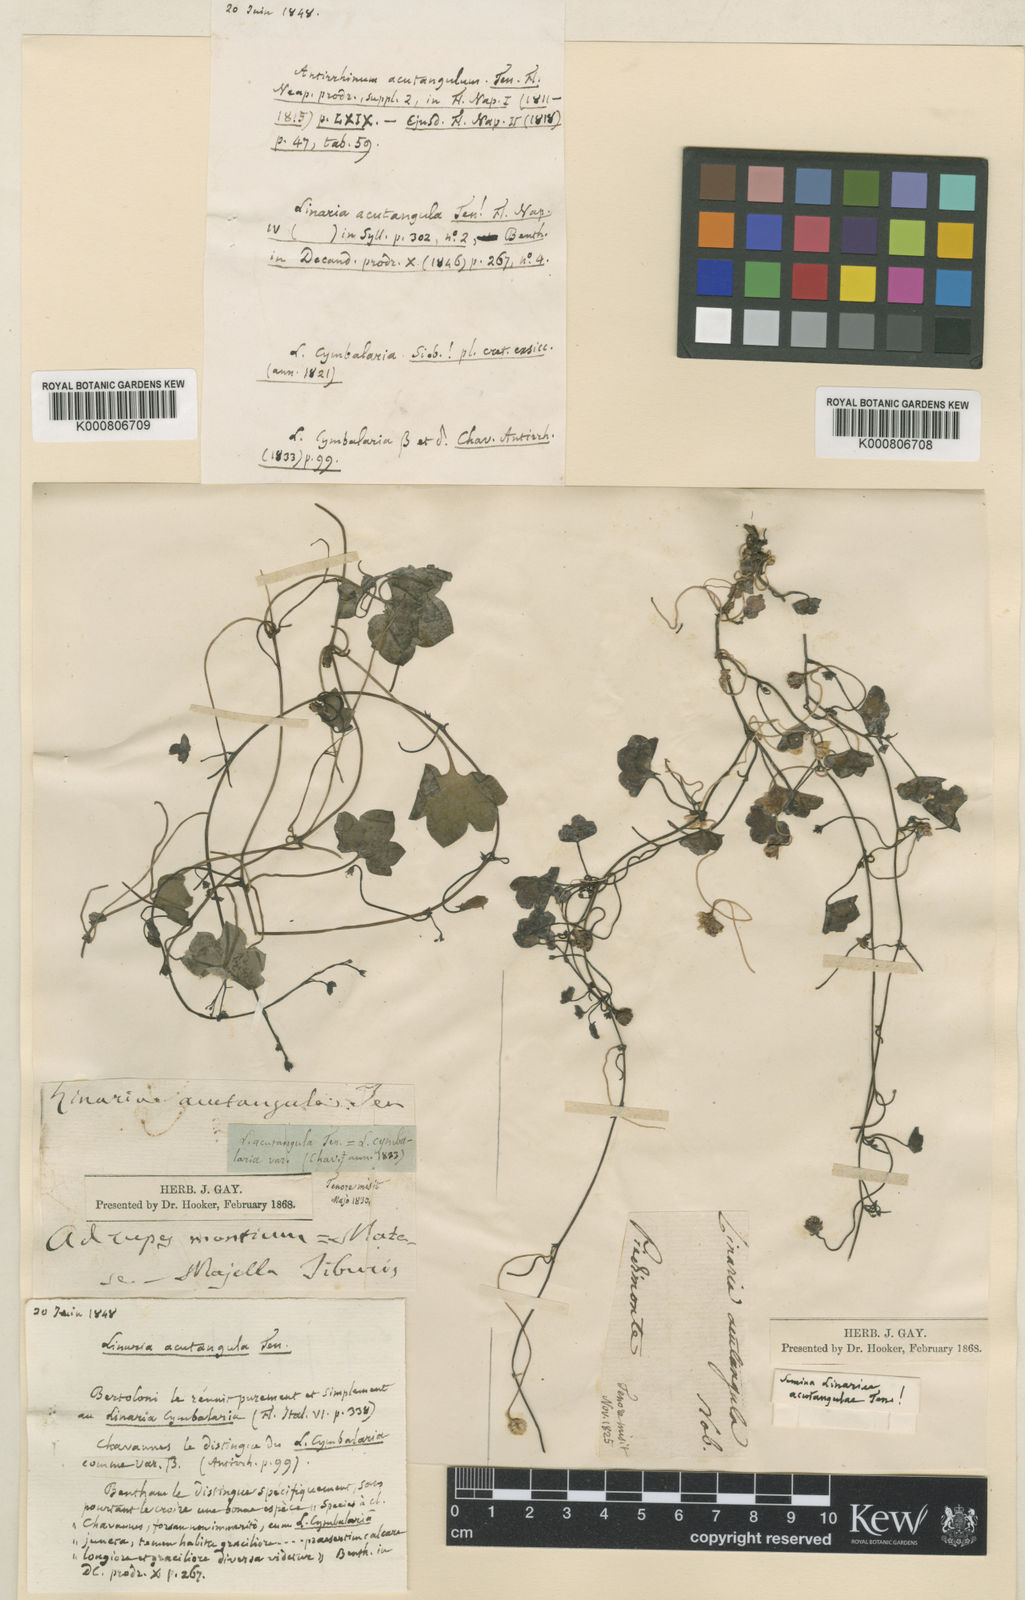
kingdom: Plantae
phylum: Tracheophyta
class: Magnoliopsida
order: Lamiales
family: Plantaginaceae
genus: Cymbalaria
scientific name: Cymbalaria muralis
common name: Ivy-leaved toadflax
